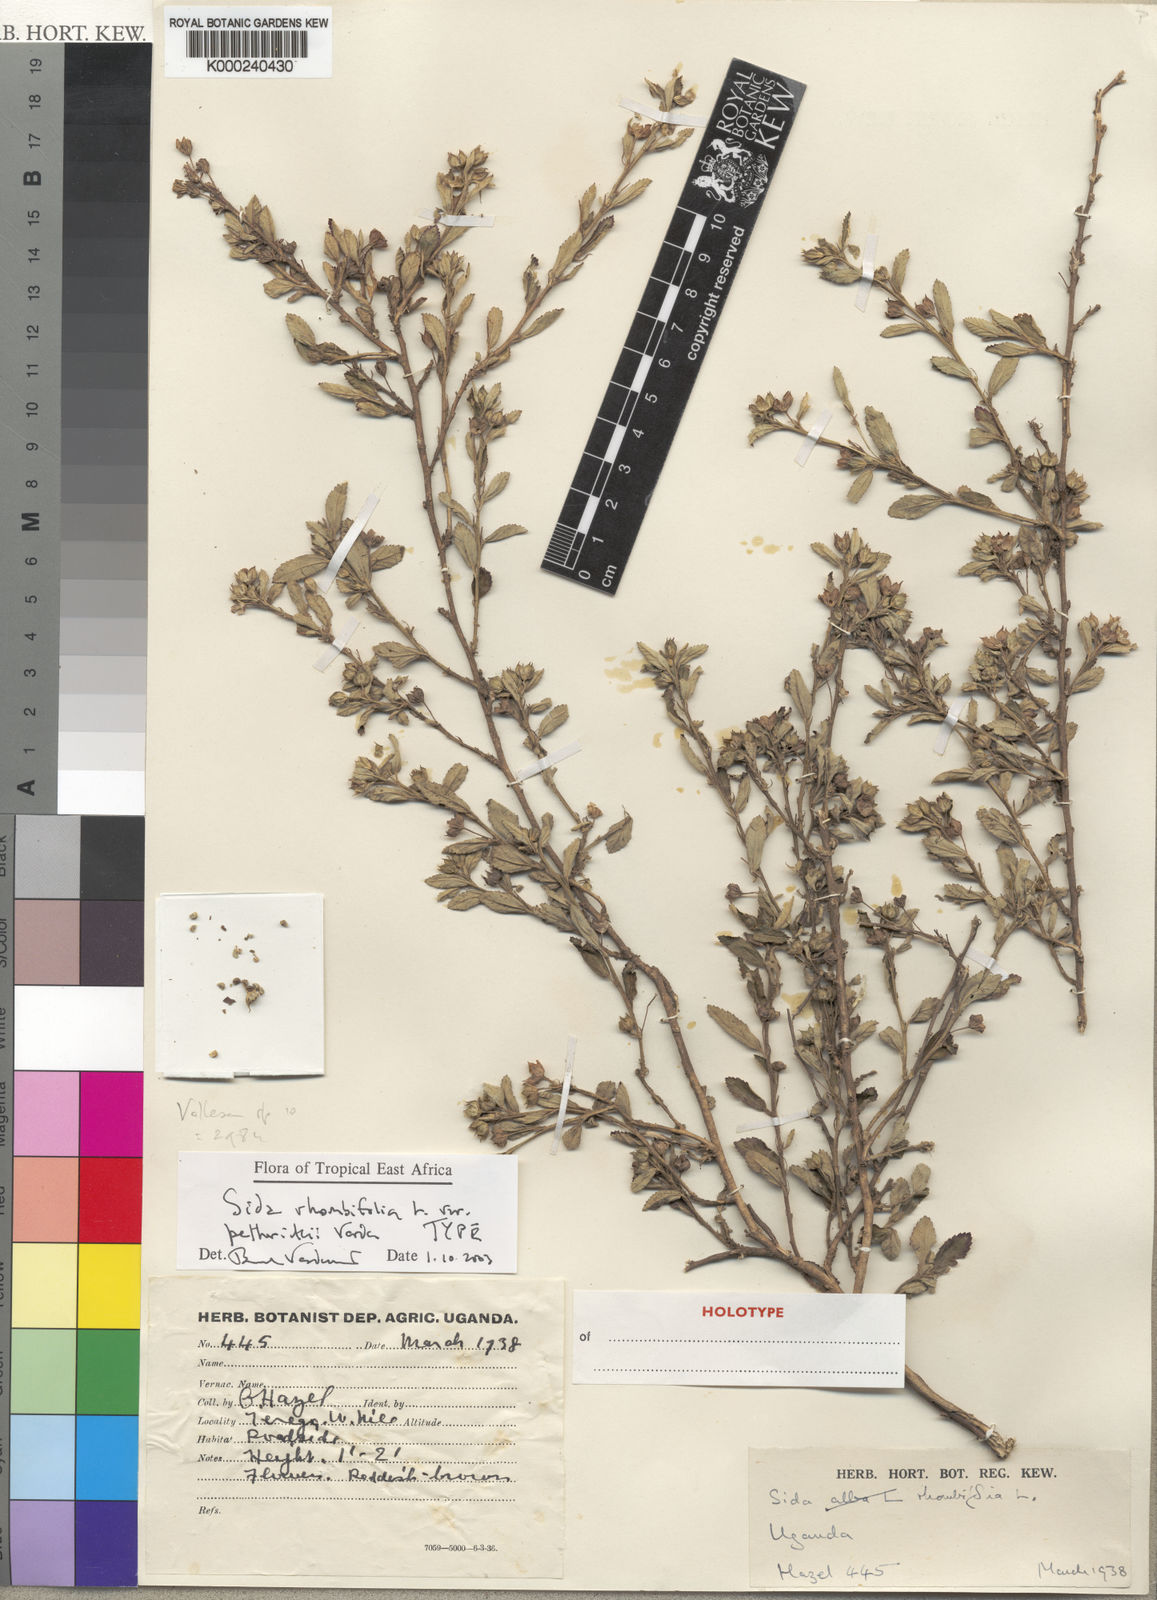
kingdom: Plantae
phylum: Tracheophyta
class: Magnoliopsida
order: Malvales
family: Malvaceae
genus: Sida
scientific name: Sida rhombifolia
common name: Queensland-hemp
